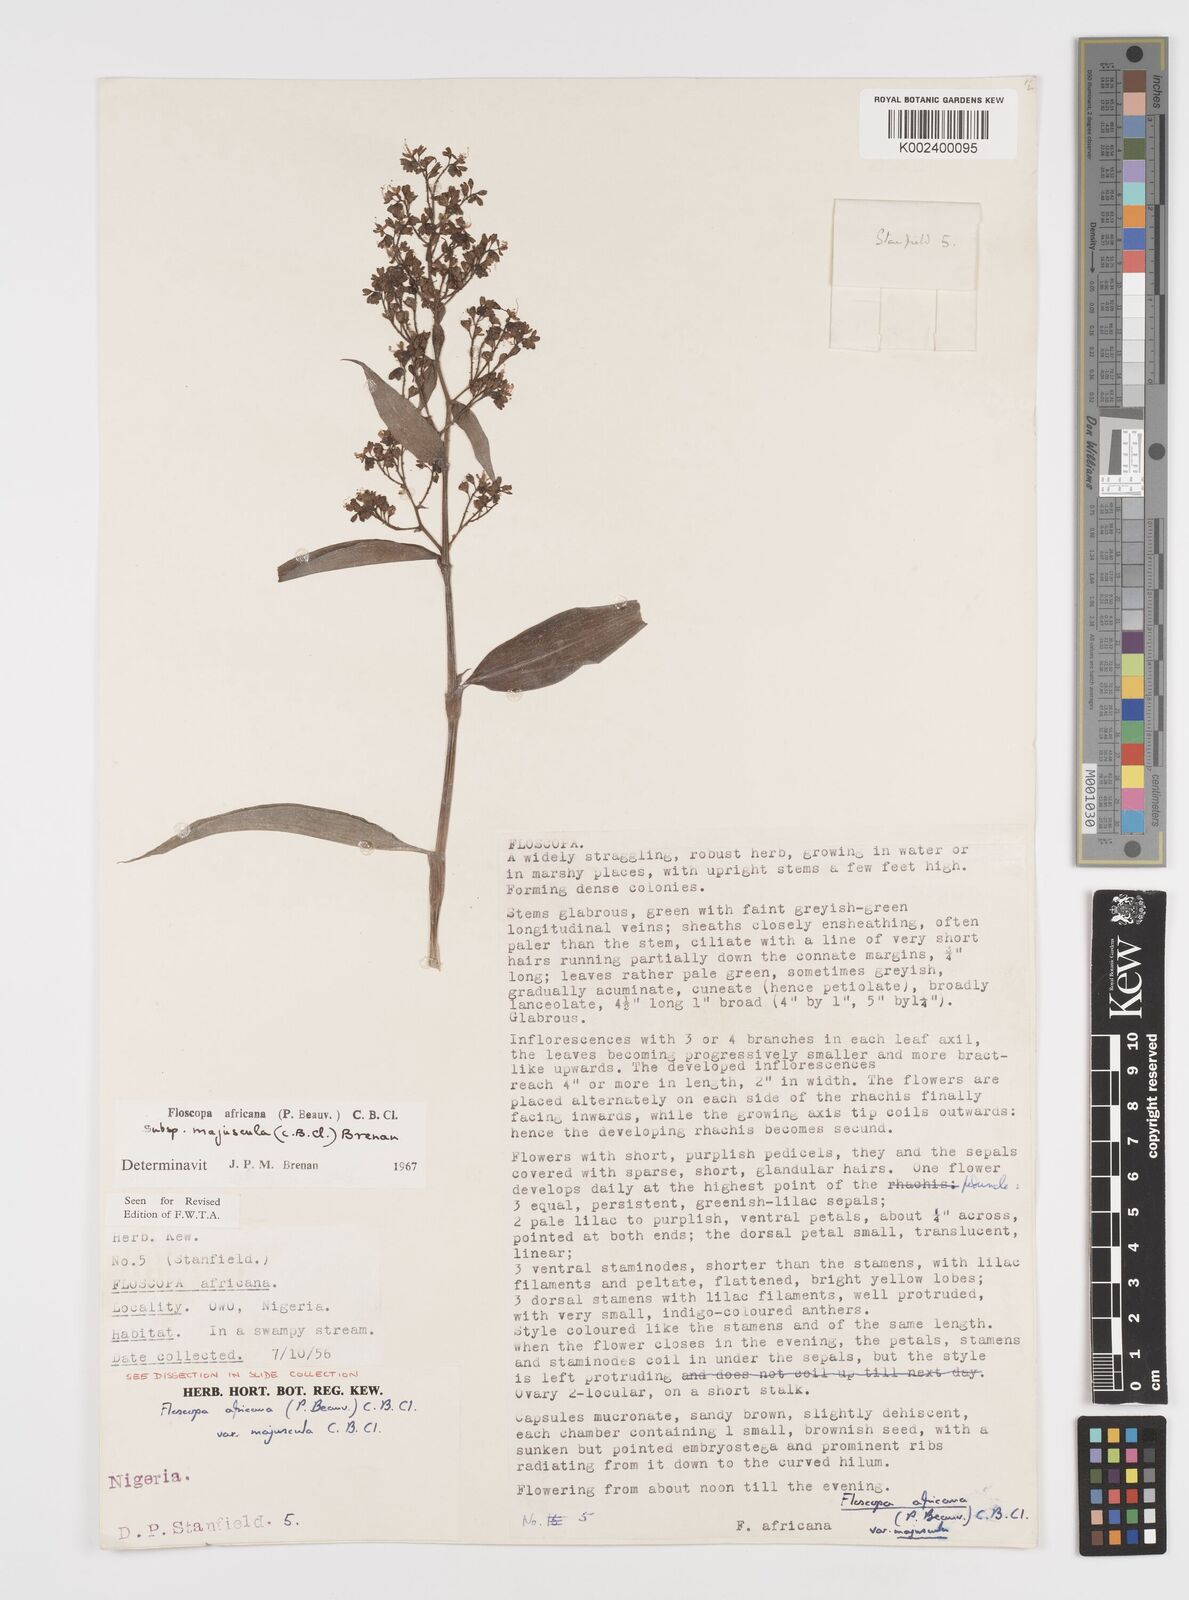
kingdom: Plantae
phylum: Tracheophyta
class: Liliopsida
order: Commelinales
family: Commelinaceae
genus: Floscopa
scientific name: Floscopa africana
